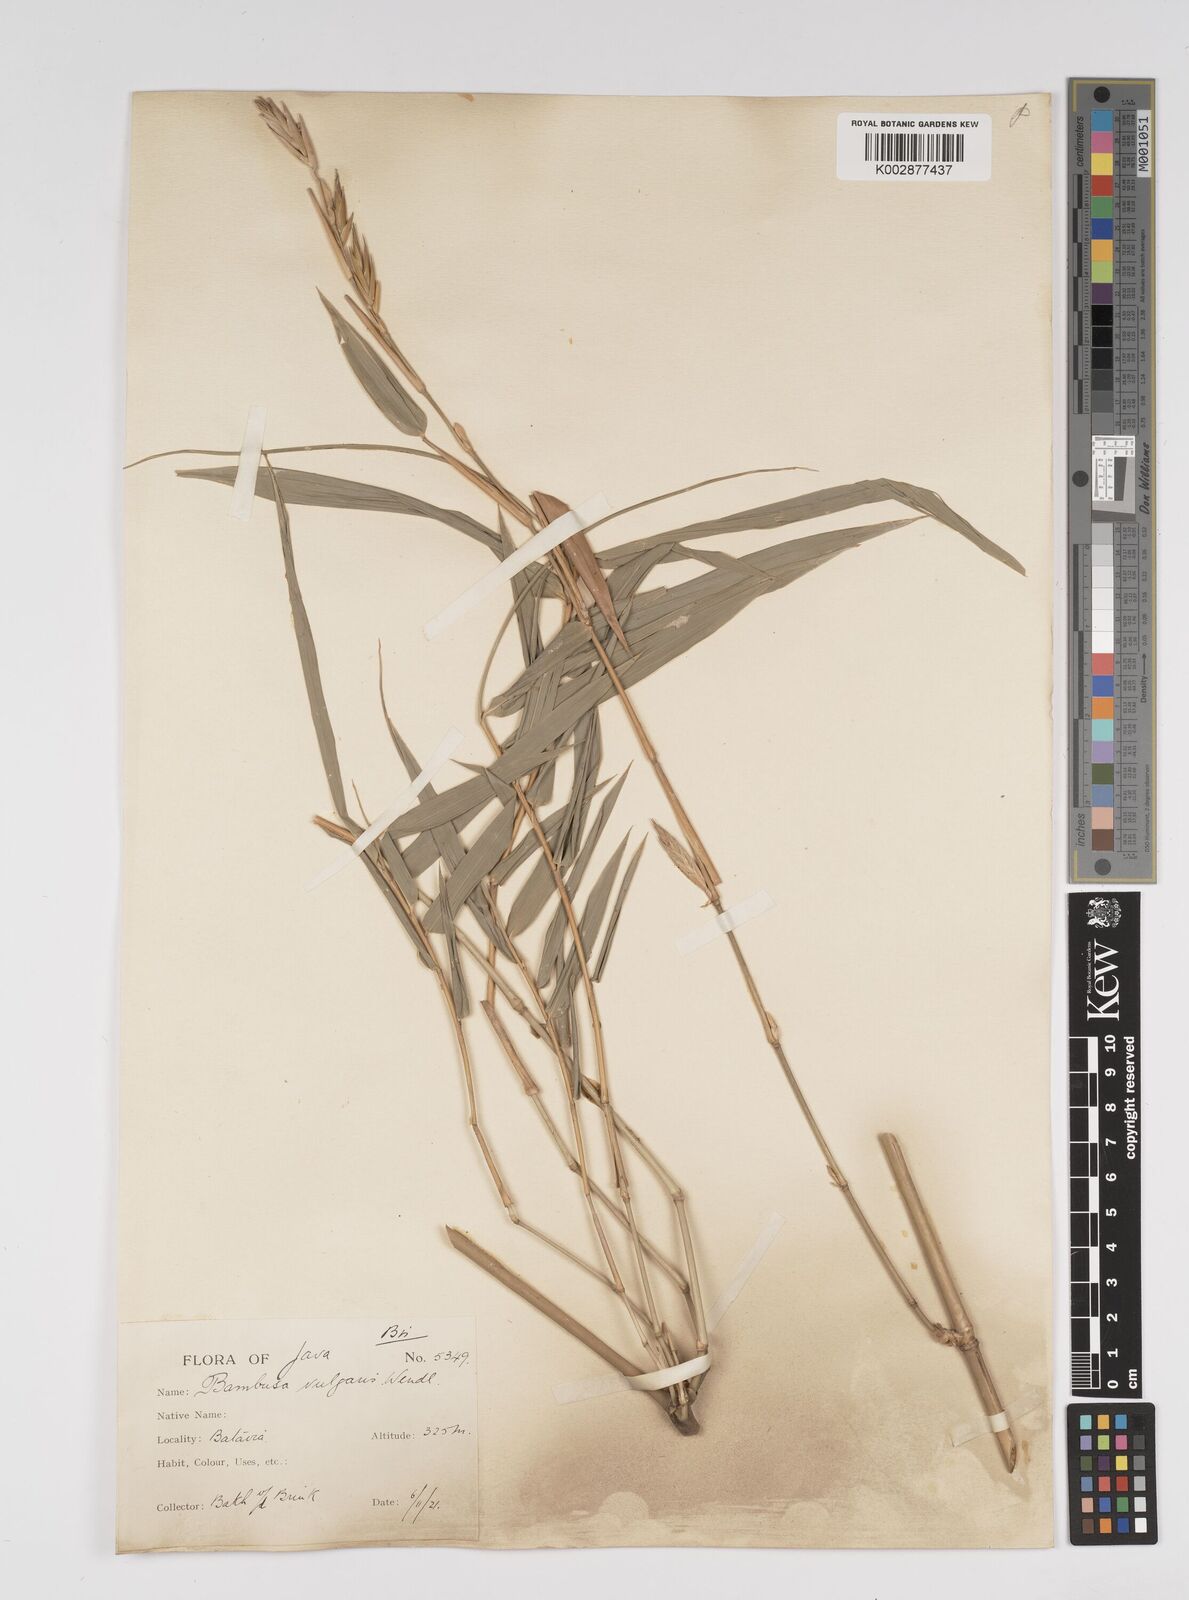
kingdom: Plantae
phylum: Tracheophyta
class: Liliopsida
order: Poales
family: Poaceae
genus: Bambusa
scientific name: Bambusa vulgaris
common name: Common bamboo
